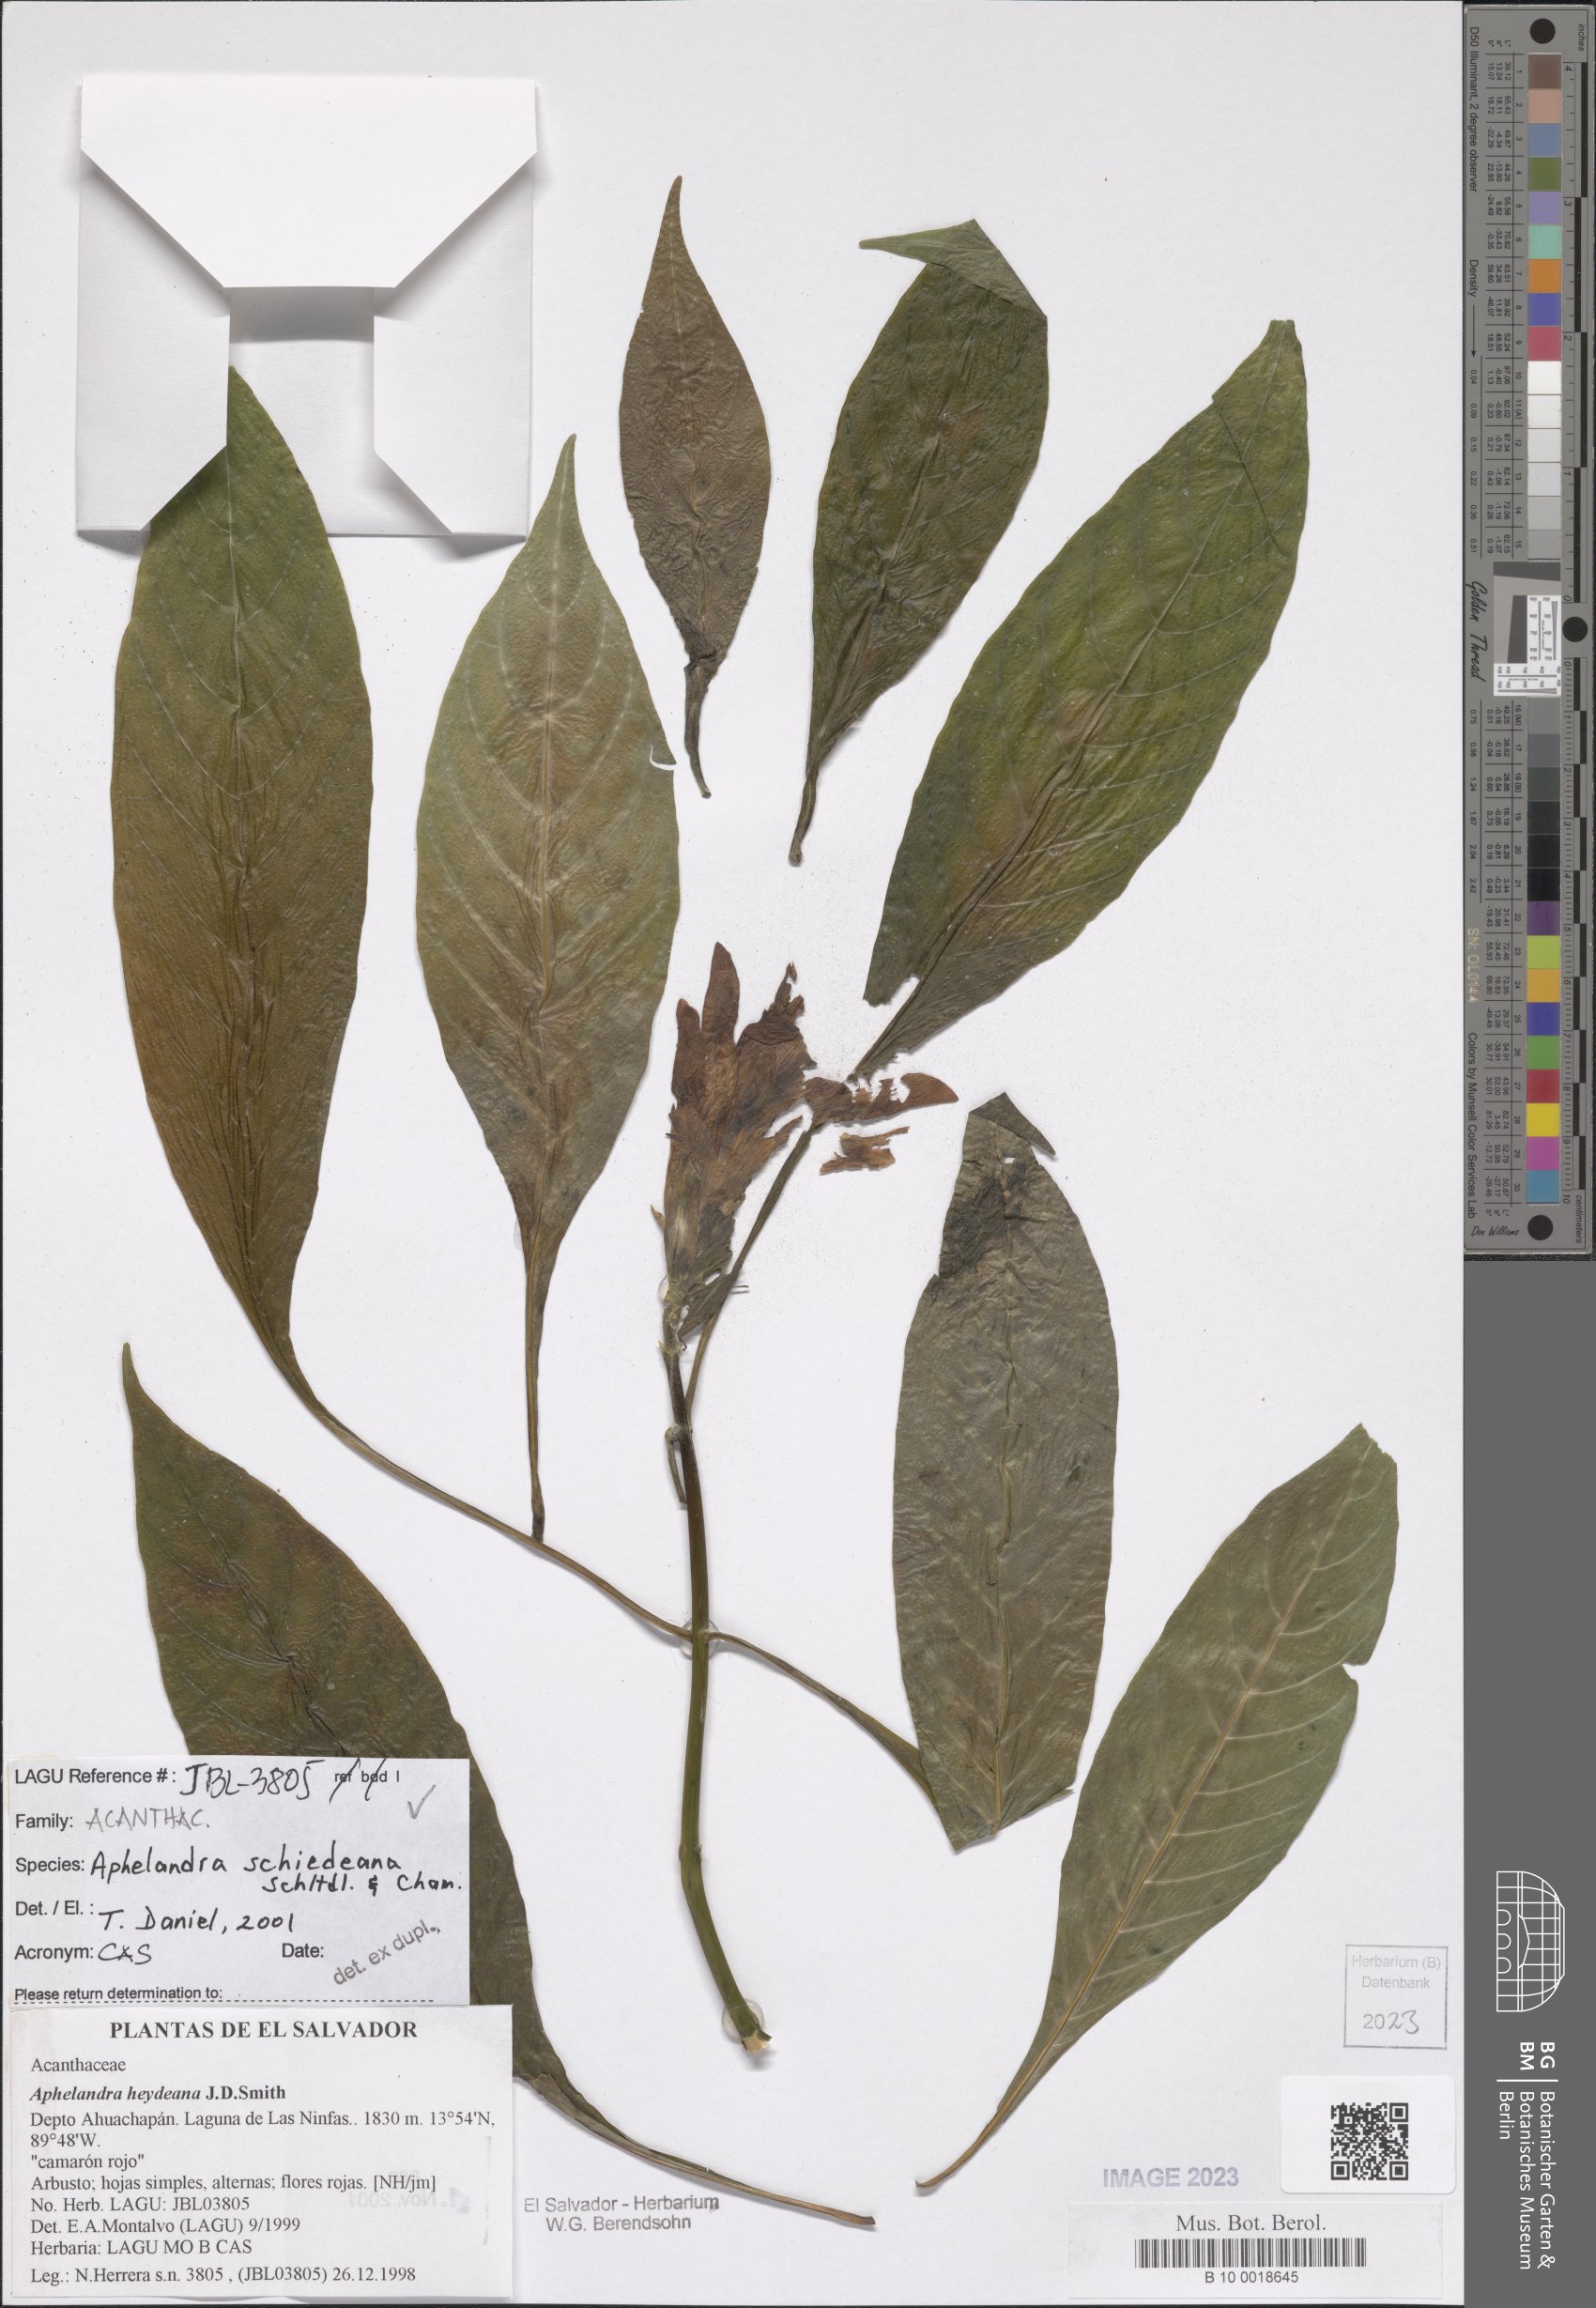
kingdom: Plantae
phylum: Tracheophyta
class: Magnoliopsida
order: Lamiales
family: Acanthaceae
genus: Aphelandra
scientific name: Aphelandra schiedeana
